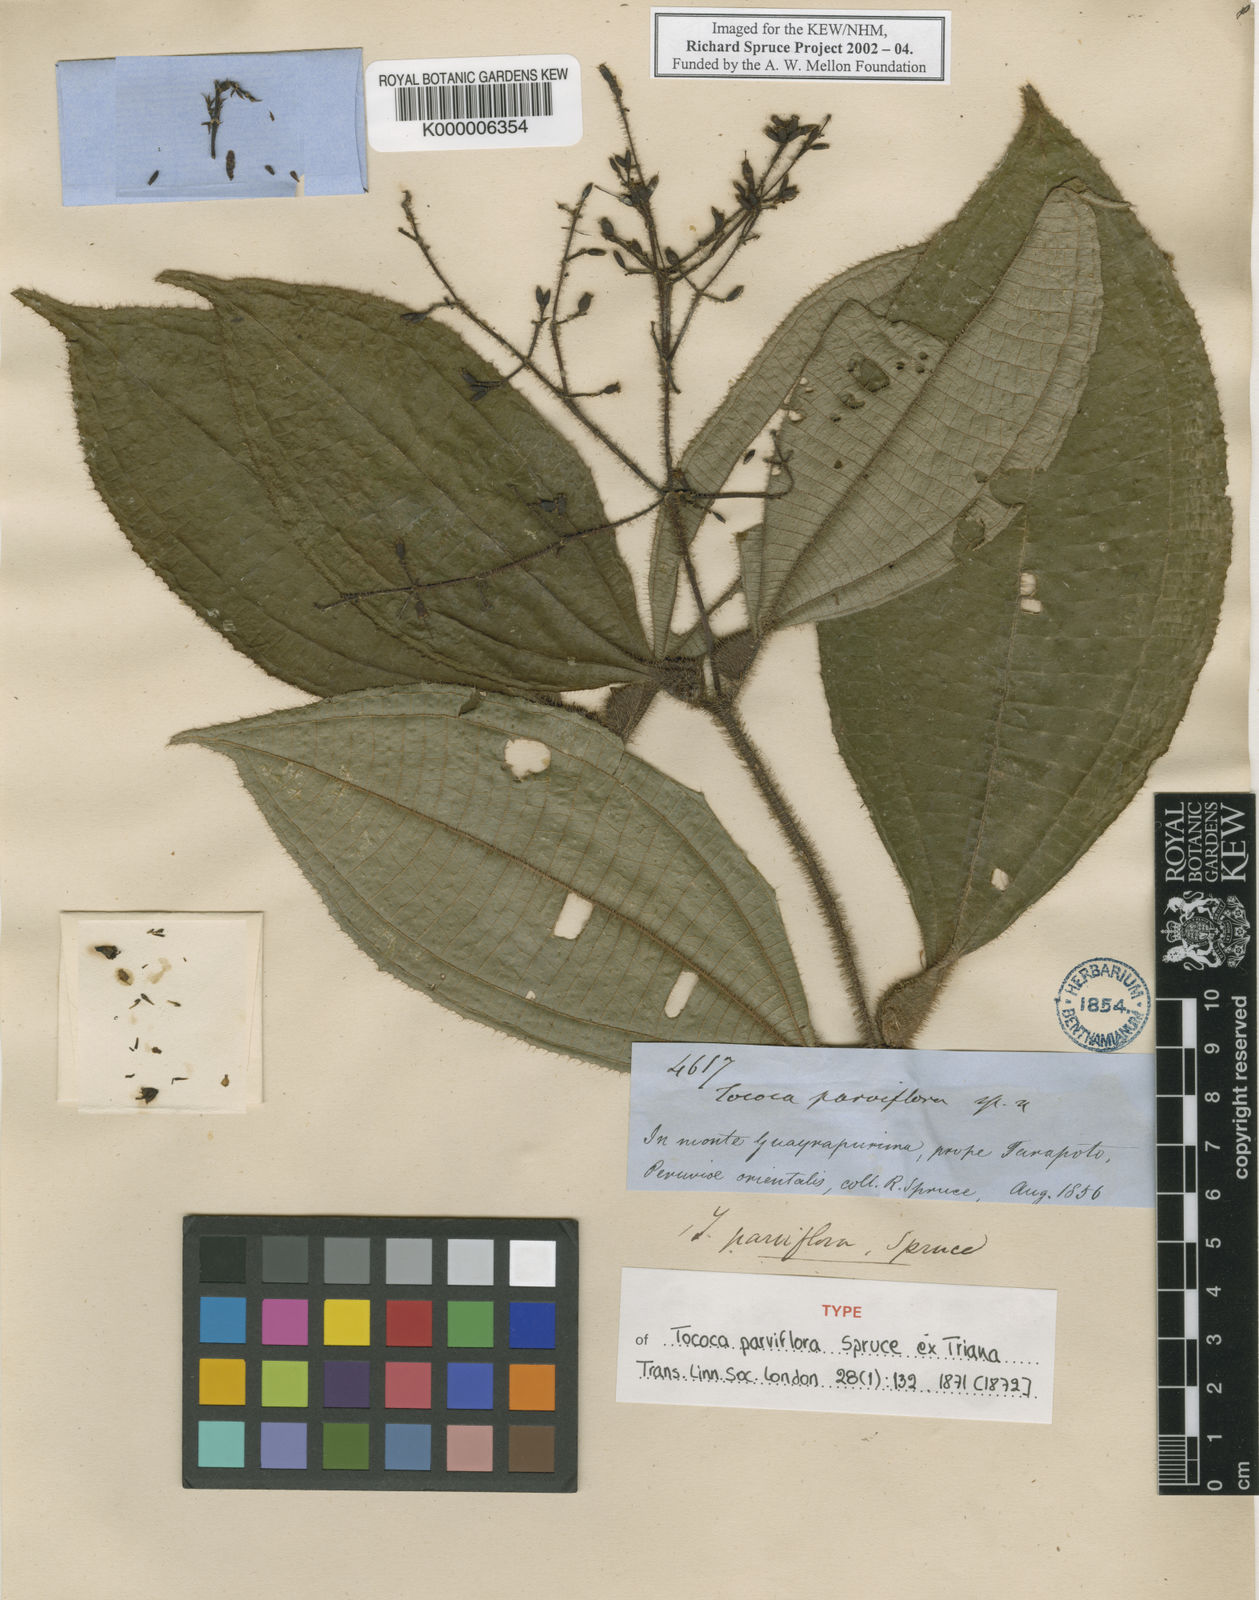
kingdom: Plantae
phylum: Tracheophyta
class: Magnoliopsida
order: Myrtales
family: Melastomataceae
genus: Miconia
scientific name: Miconia manserichensis
